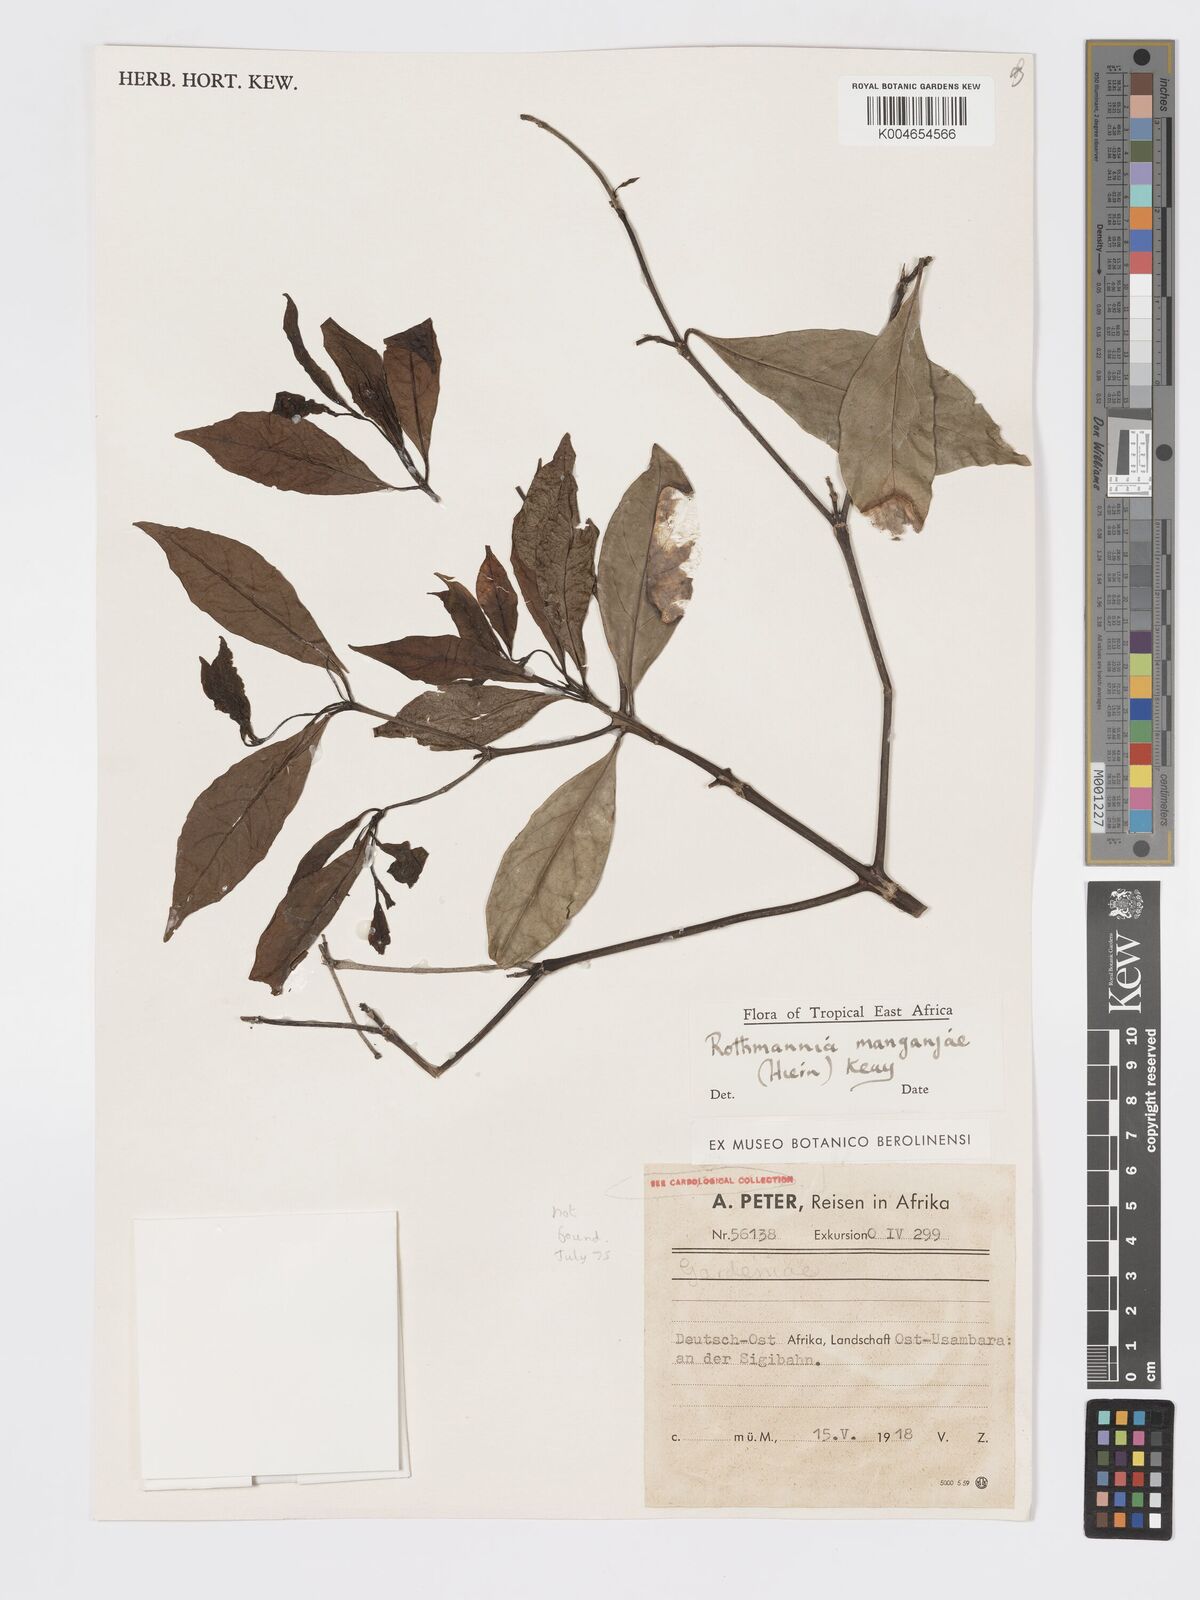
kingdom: Plantae
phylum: Tracheophyta
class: Magnoliopsida
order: Gentianales
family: Rubiaceae
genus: Rothmannia
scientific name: Rothmannia manganjae
